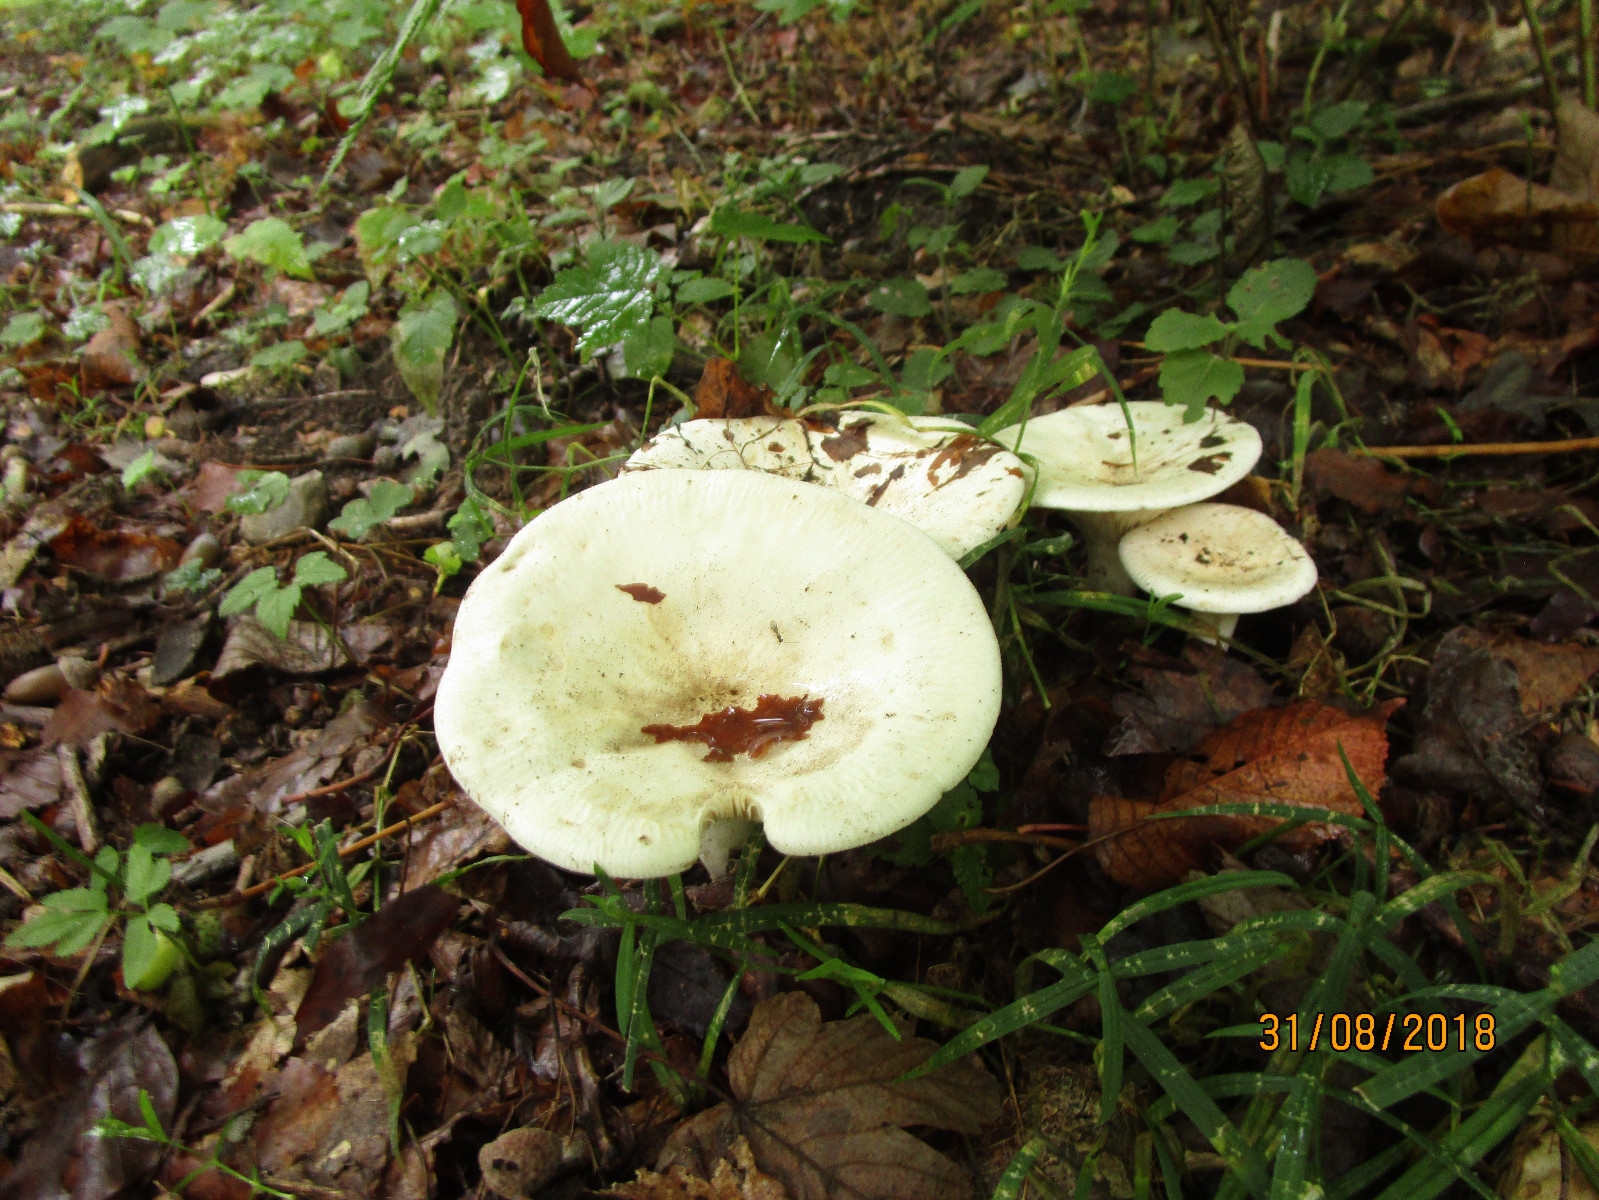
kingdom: Fungi
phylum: Basidiomycota
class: Agaricomycetes
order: Agaricales
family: Tricholomataceae
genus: Aspropaxillus
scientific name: Aspropaxillus giganteus
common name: kæmpe-tragtridderhat
